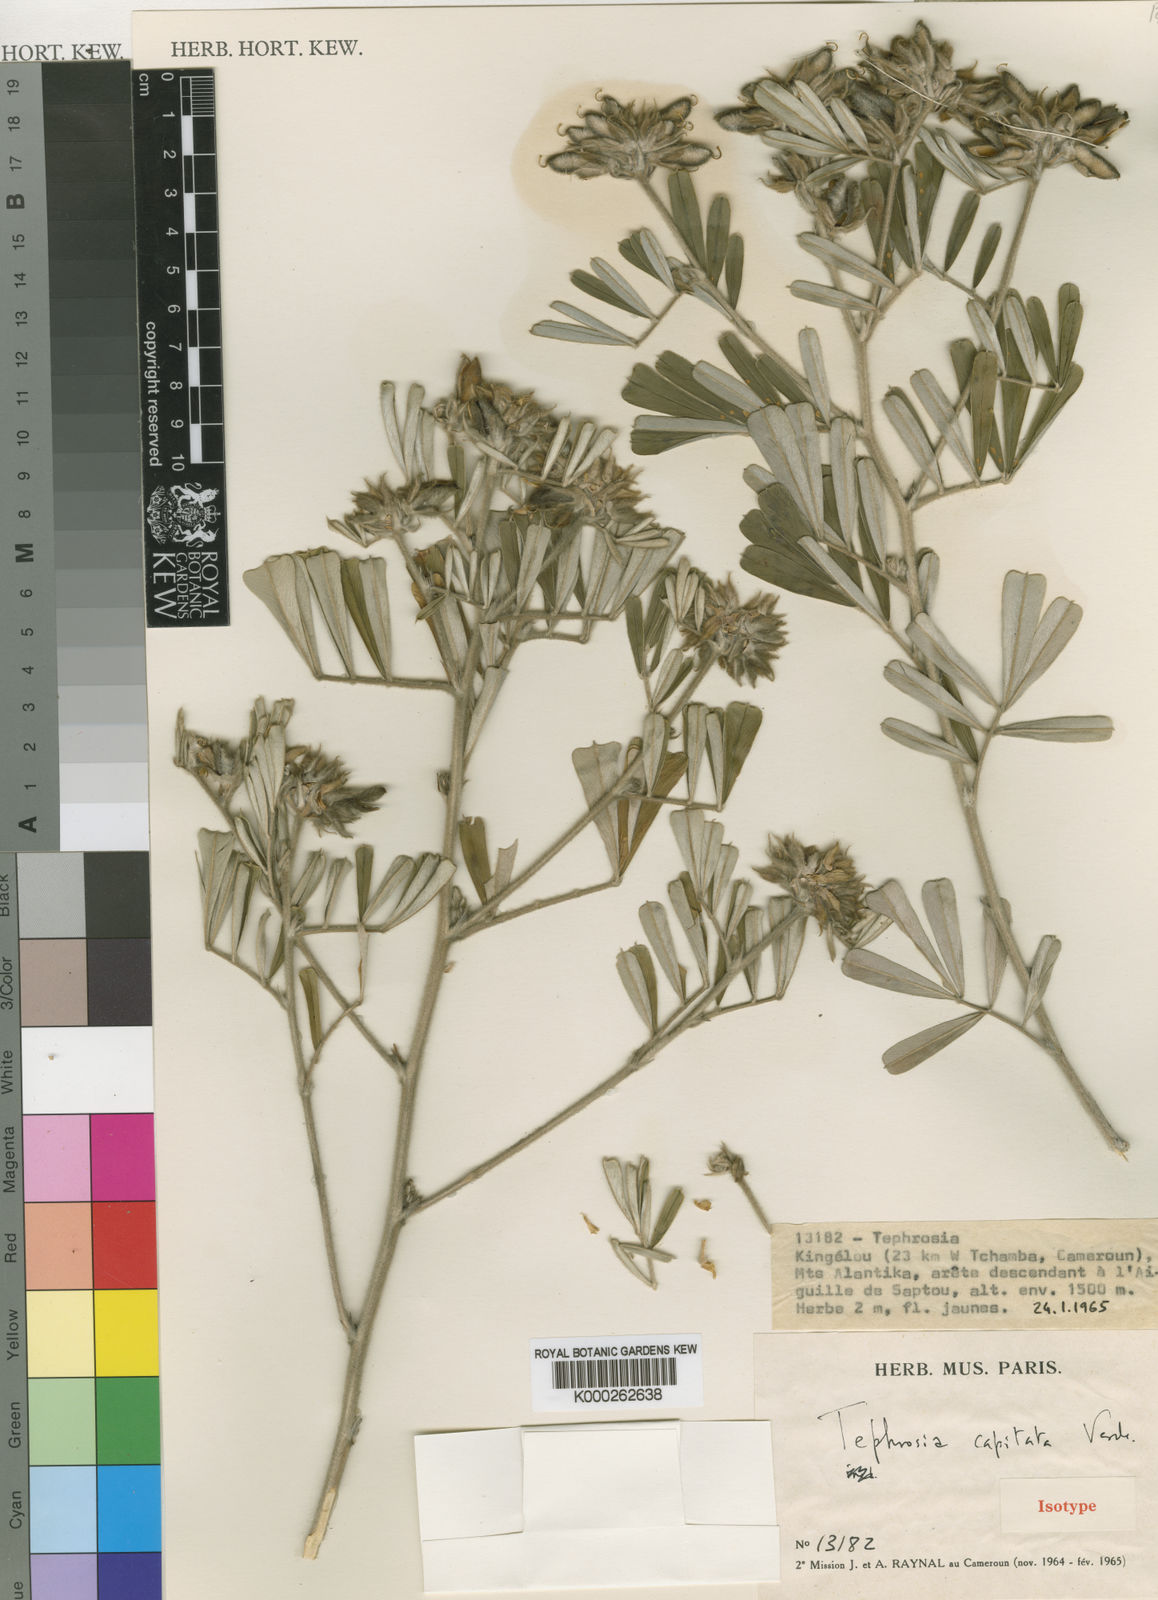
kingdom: Plantae
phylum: Tracheophyta
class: Magnoliopsida
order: Fabales
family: Fabaceae
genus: Tephrosia
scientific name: Tephrosia capitata
